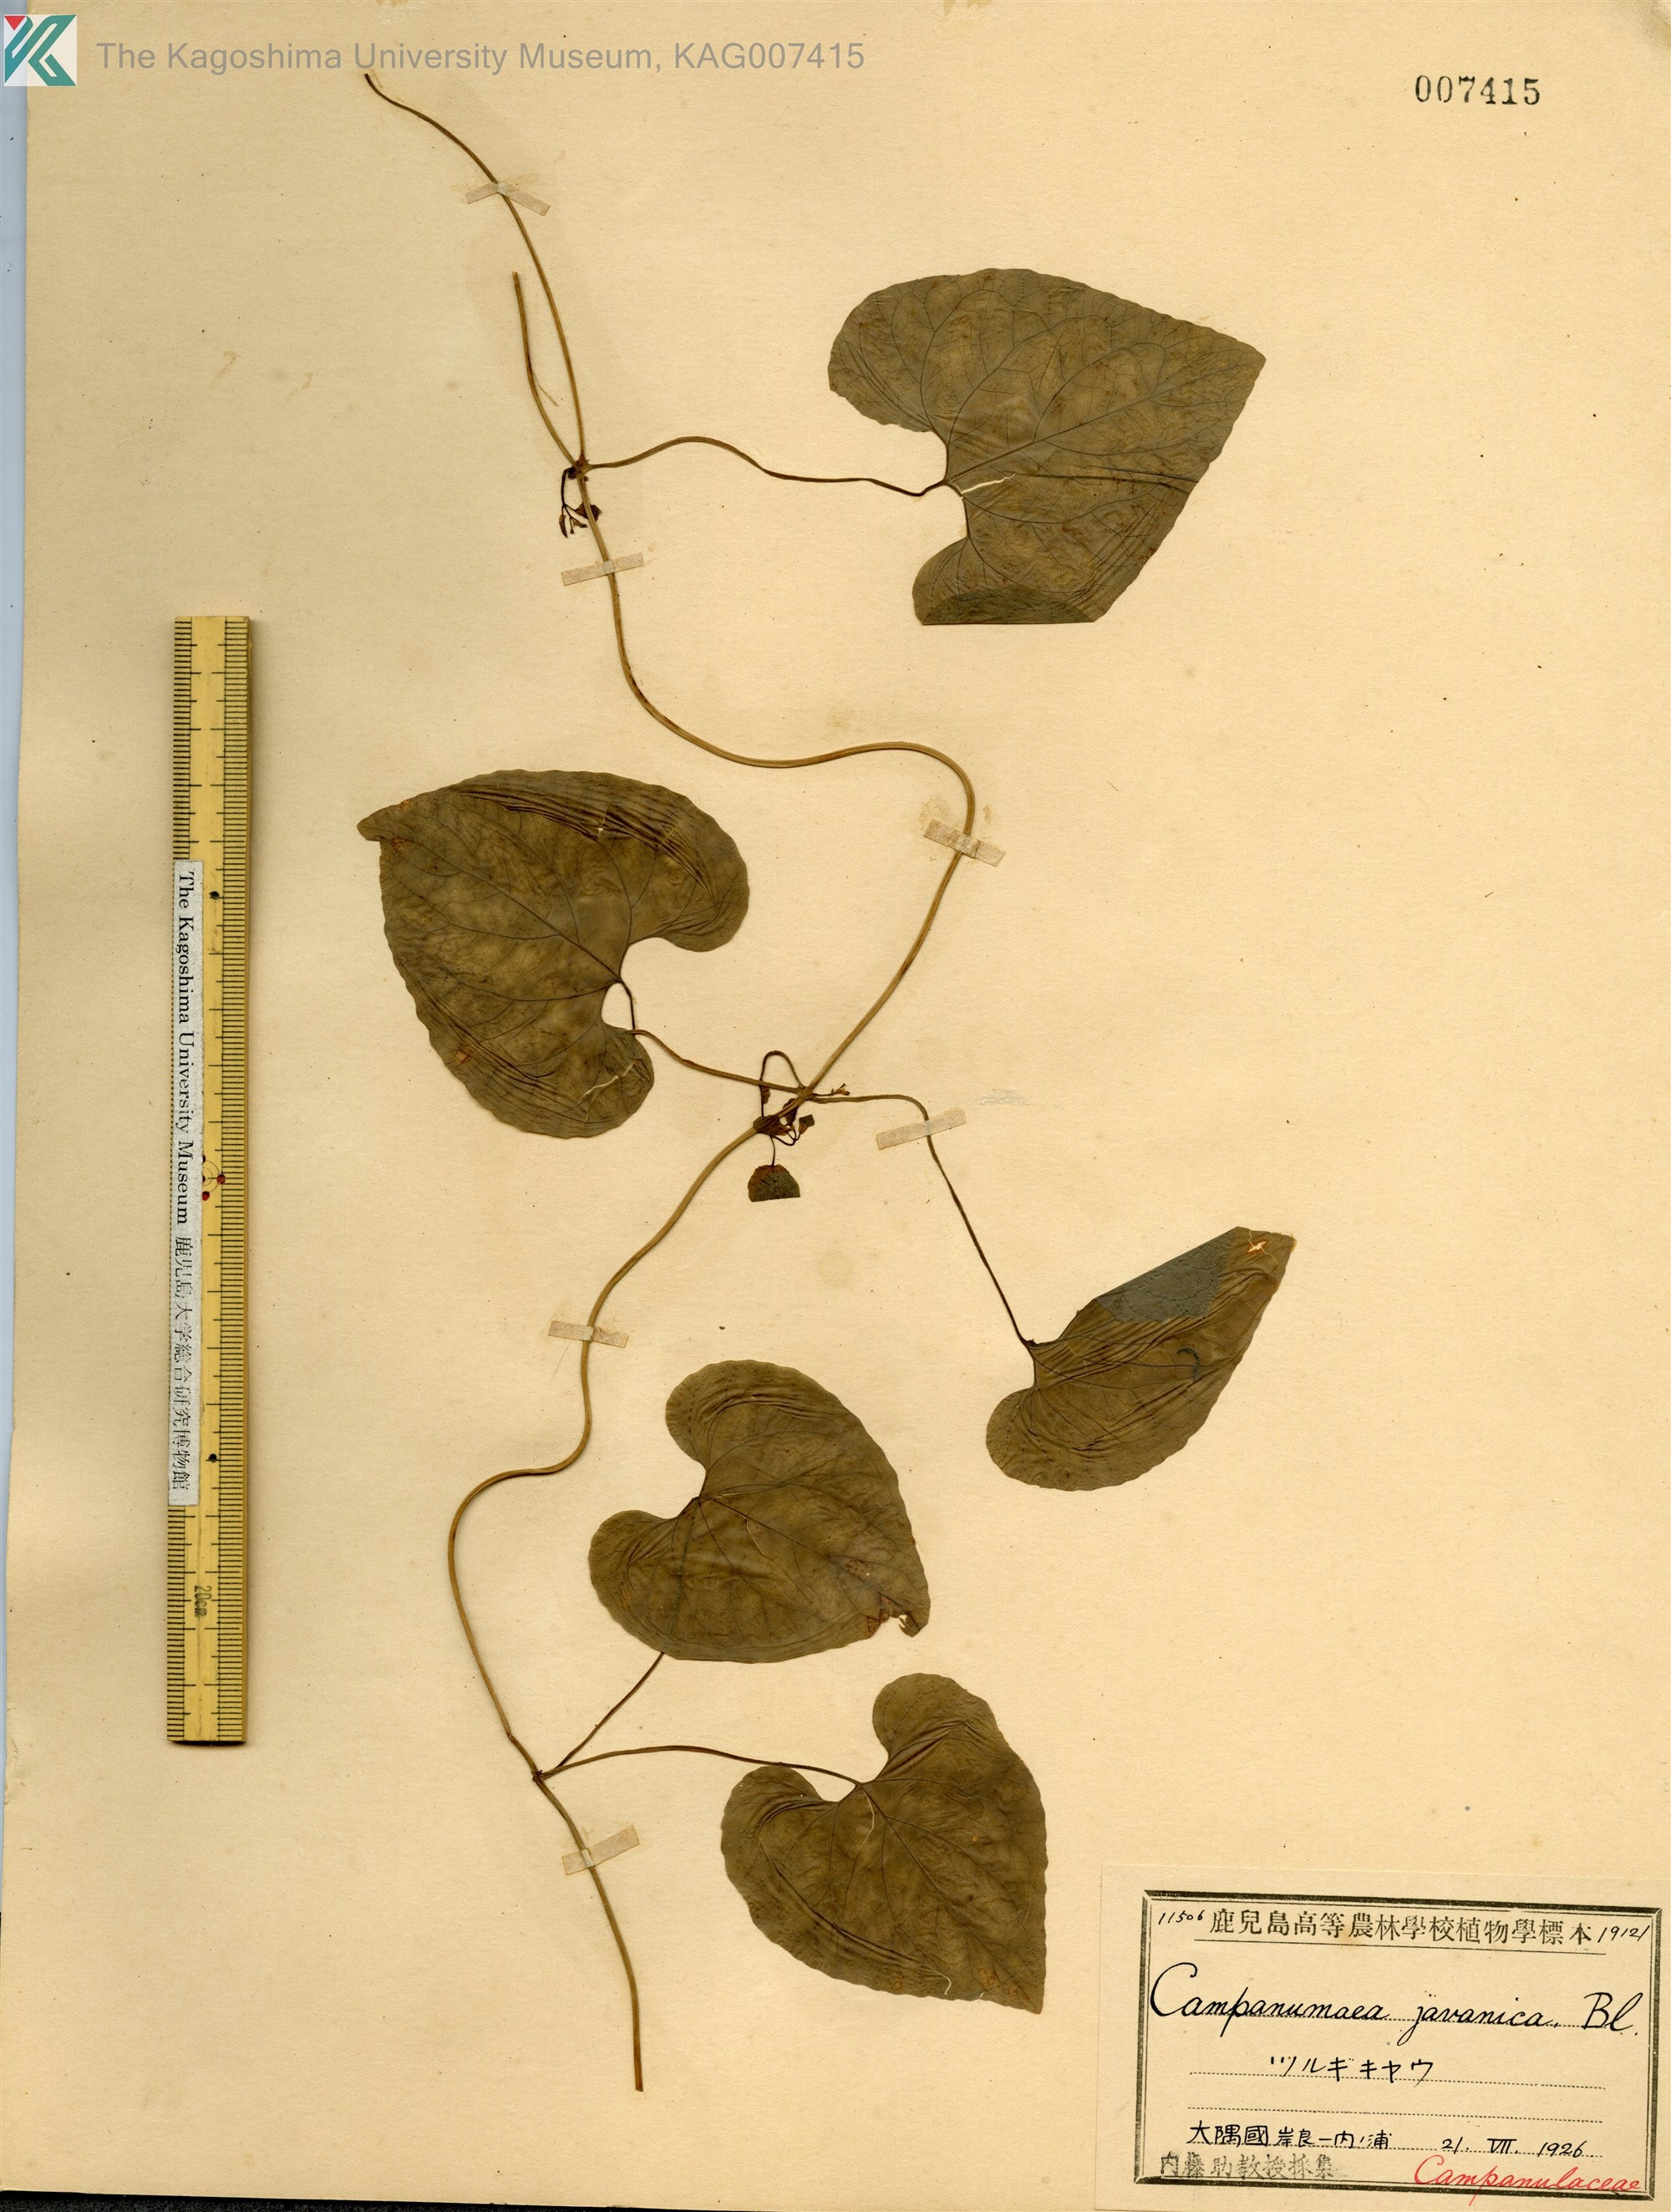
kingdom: Plantae
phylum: Tracheophyta
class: Magnoliopsida
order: Asterales
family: Campanulaceae
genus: Codonopsis
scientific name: Codonopsis javanica
